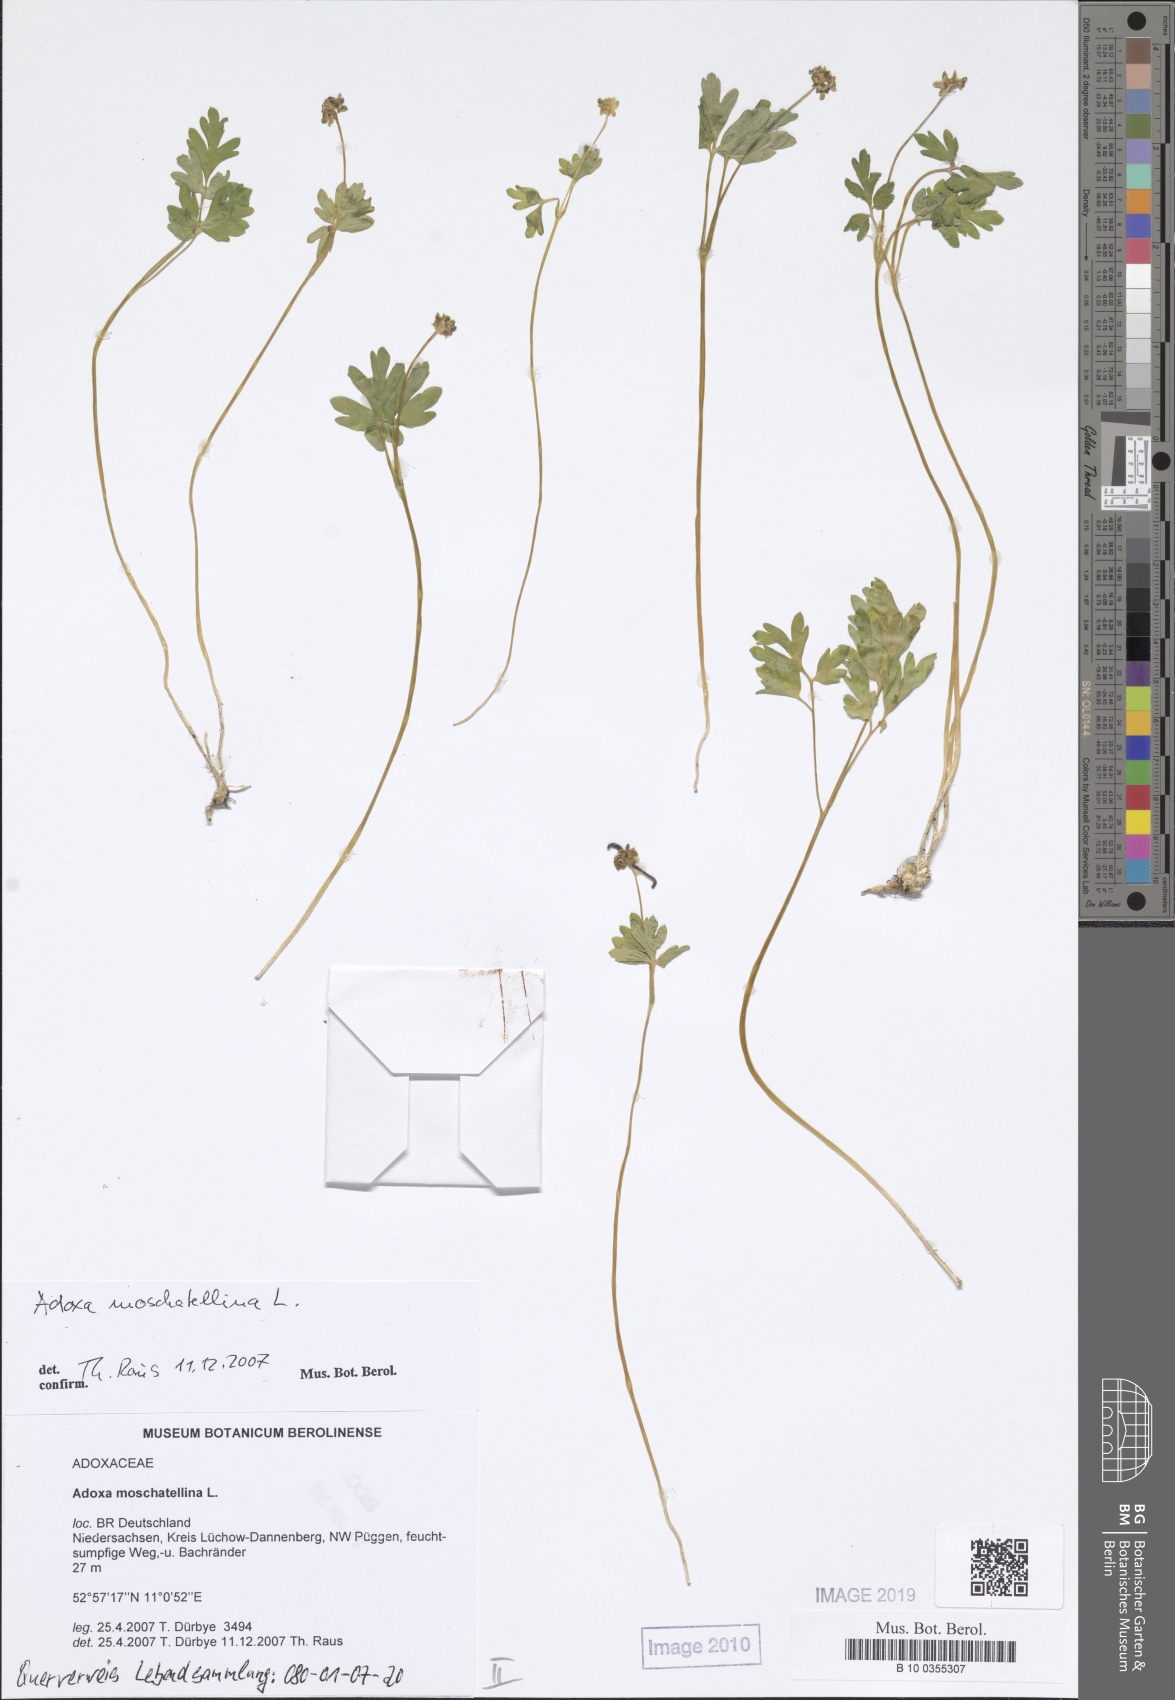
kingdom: Plantae
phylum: Tracheophyta
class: Magnoliopsida
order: Dipsacales
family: Viburnaceae
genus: Adoxa
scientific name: Adoxa moschatellina
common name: Moschatel
